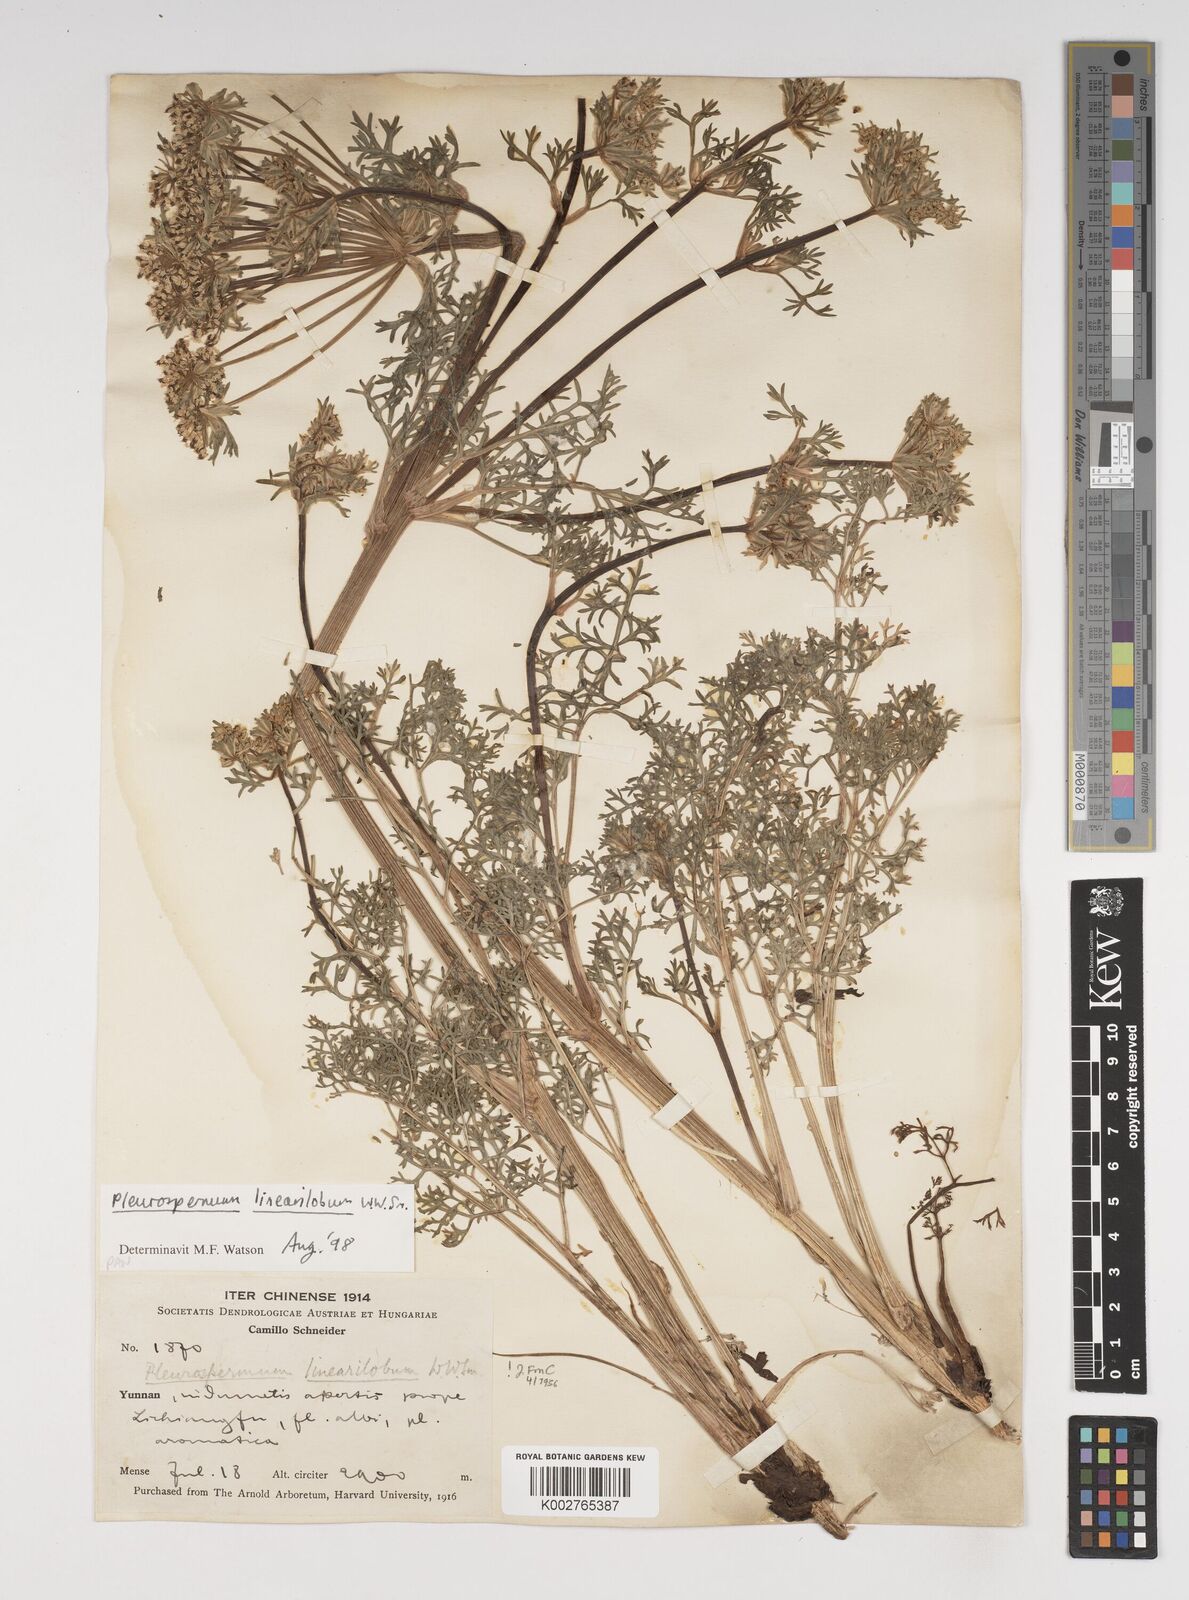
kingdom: Plantae
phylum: Tracheophyta
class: Magnoliopsida
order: Apiales
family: Apiaceae
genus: Hymenidium
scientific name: Hymenidium linearilobum
